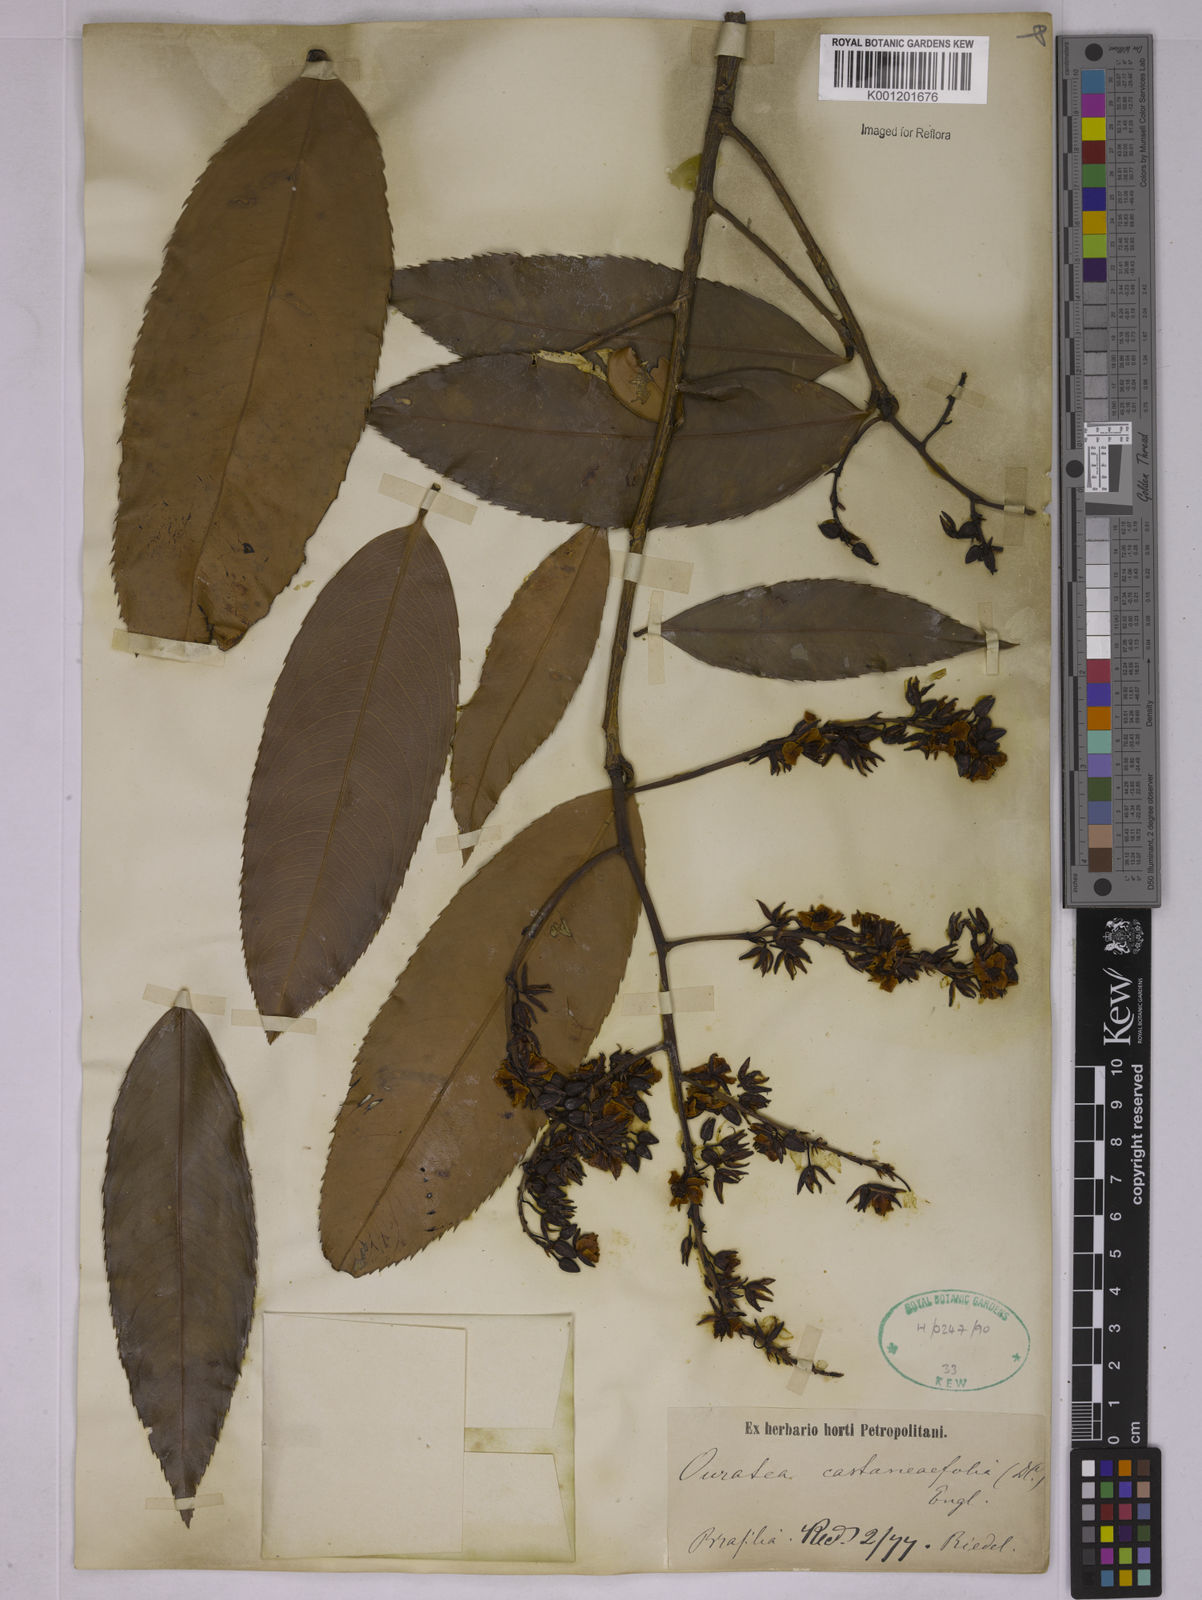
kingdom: Plantae
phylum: Tracheophyta
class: Magnoliopsida
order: Malpighiales
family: Ochnaceae
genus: Ouratea
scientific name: Ouratea castaneifolia
